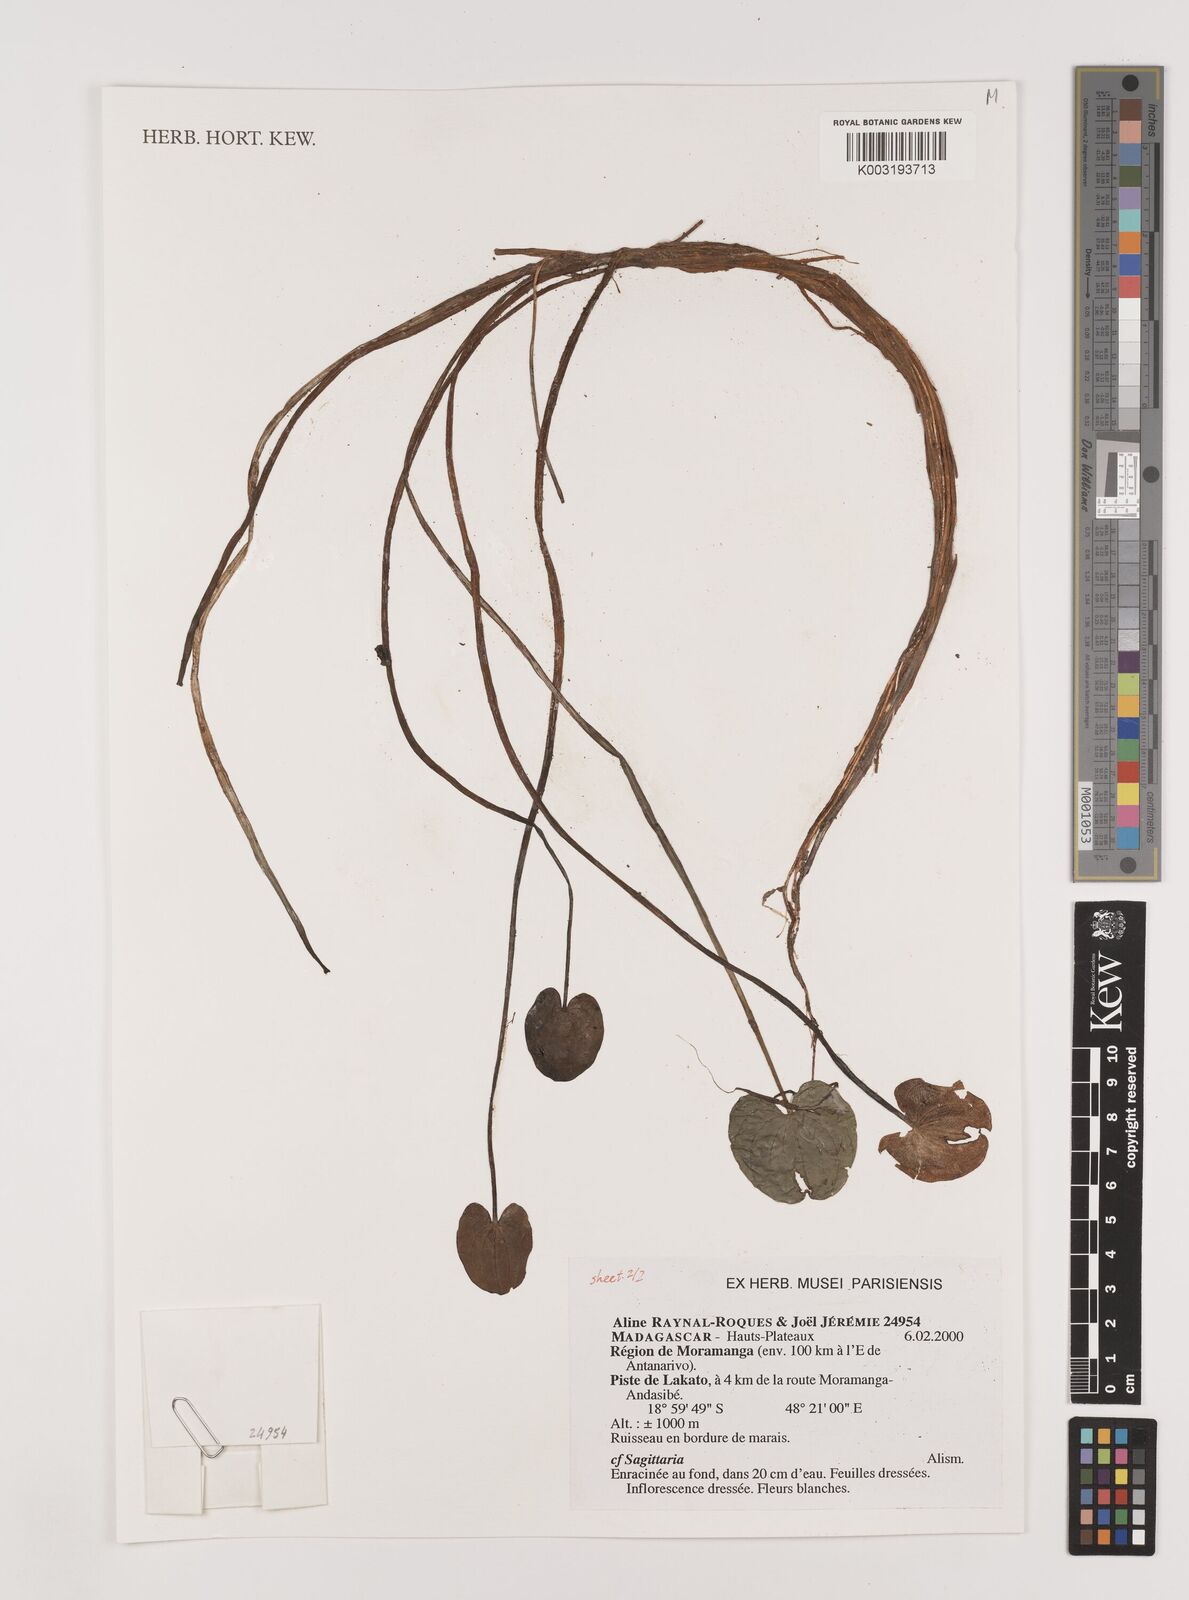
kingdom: Plantae
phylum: Tracheophyta
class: Liliopsida
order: Alismatales
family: Alismataceae
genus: Sagittaria
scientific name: Sagittaria
